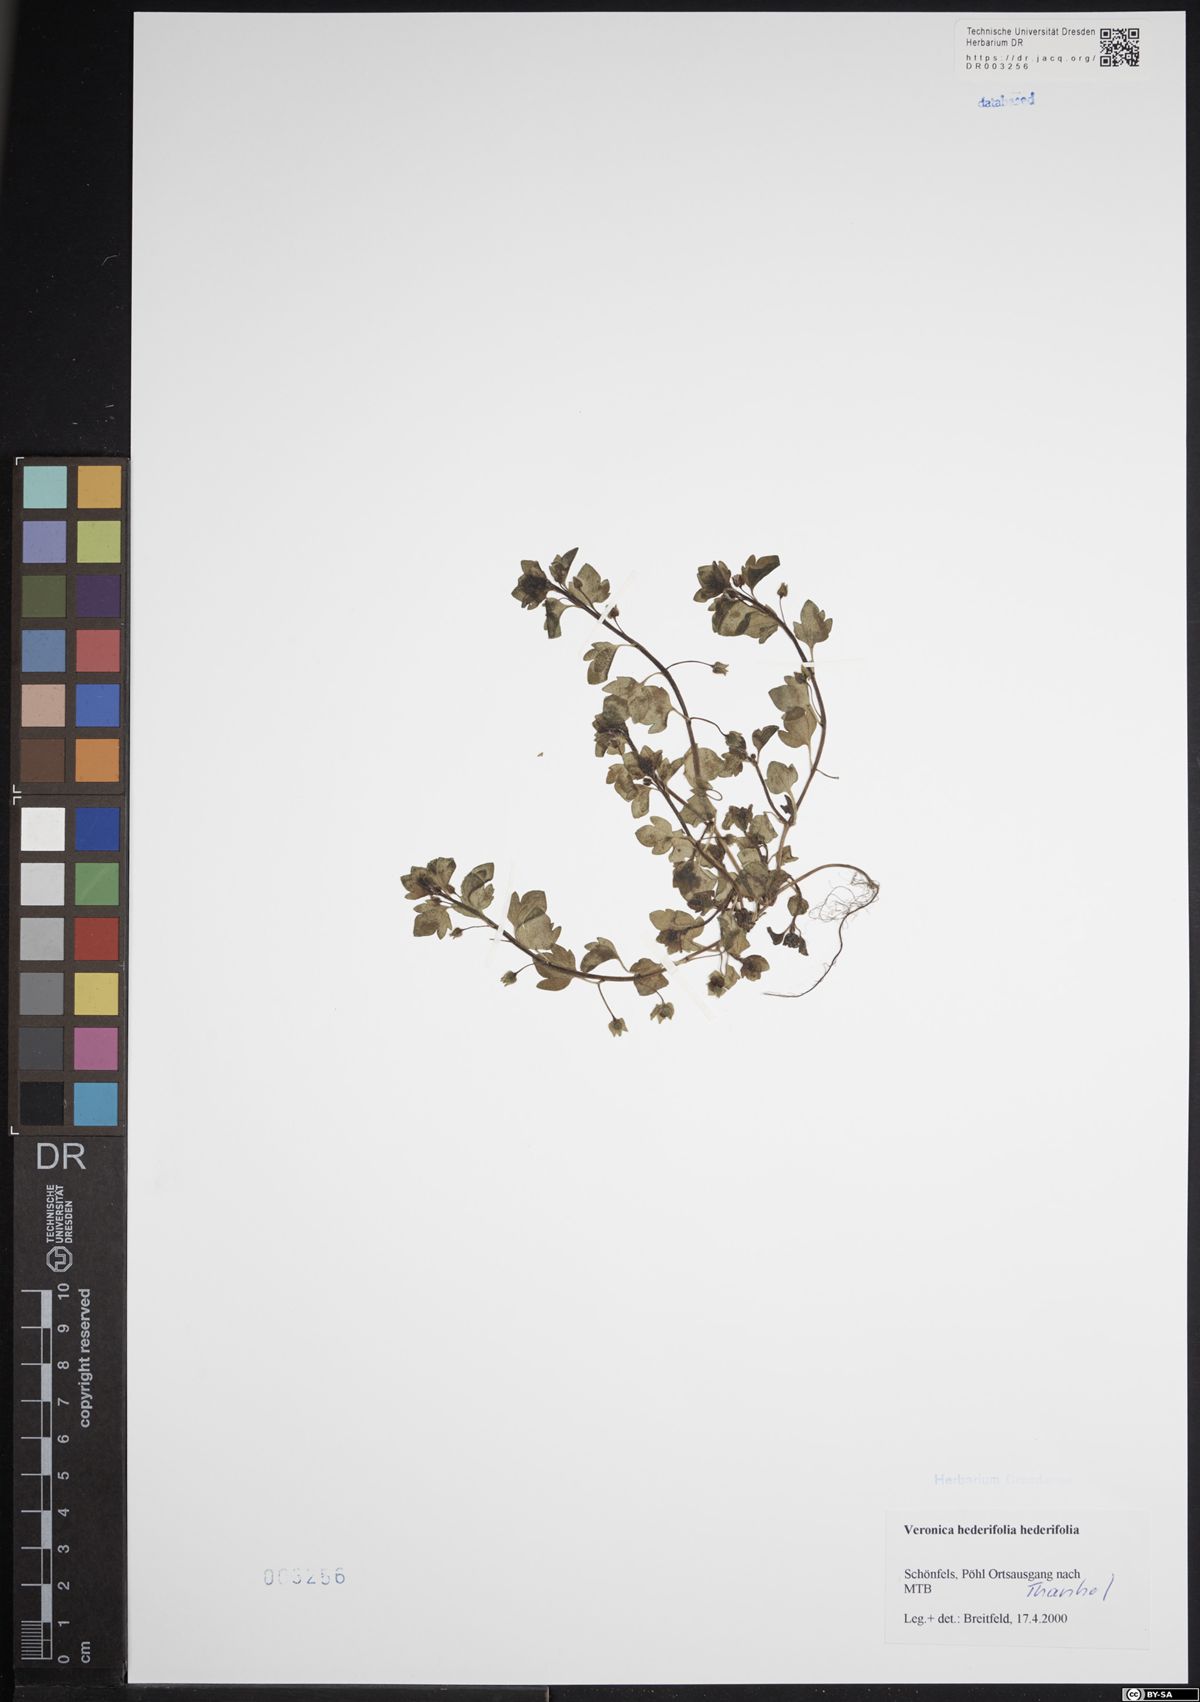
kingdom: Plantae
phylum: Tracheophyta
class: Magnoliopsida
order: Lamiales
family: Plantaginaceae
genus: Veronica
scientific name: Veronica hederifolia
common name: Ivy-leaved speedwell
